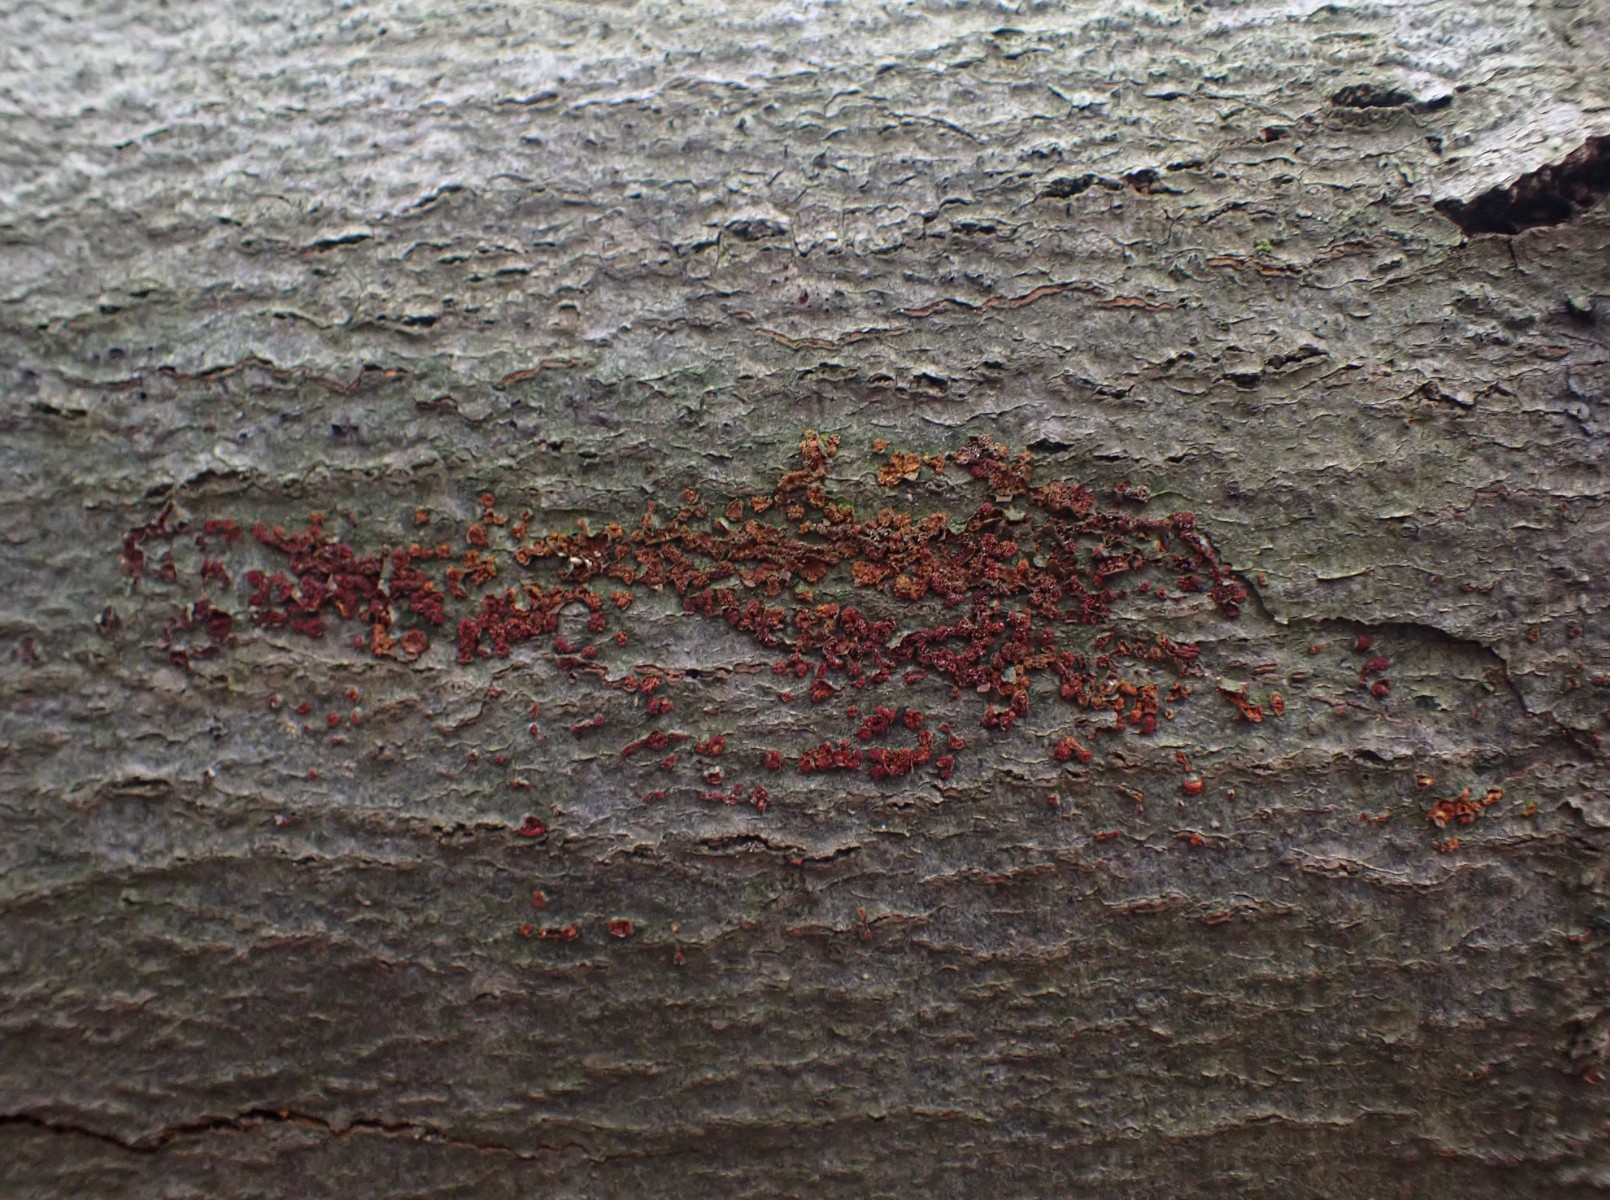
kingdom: Fungi
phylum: Ascomycota
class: Sordariomycetes
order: Hypocreales
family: Nectriaceae
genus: Neonectria
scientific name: Neonectria coccinea
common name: bøgebark-cinnobersvamp
